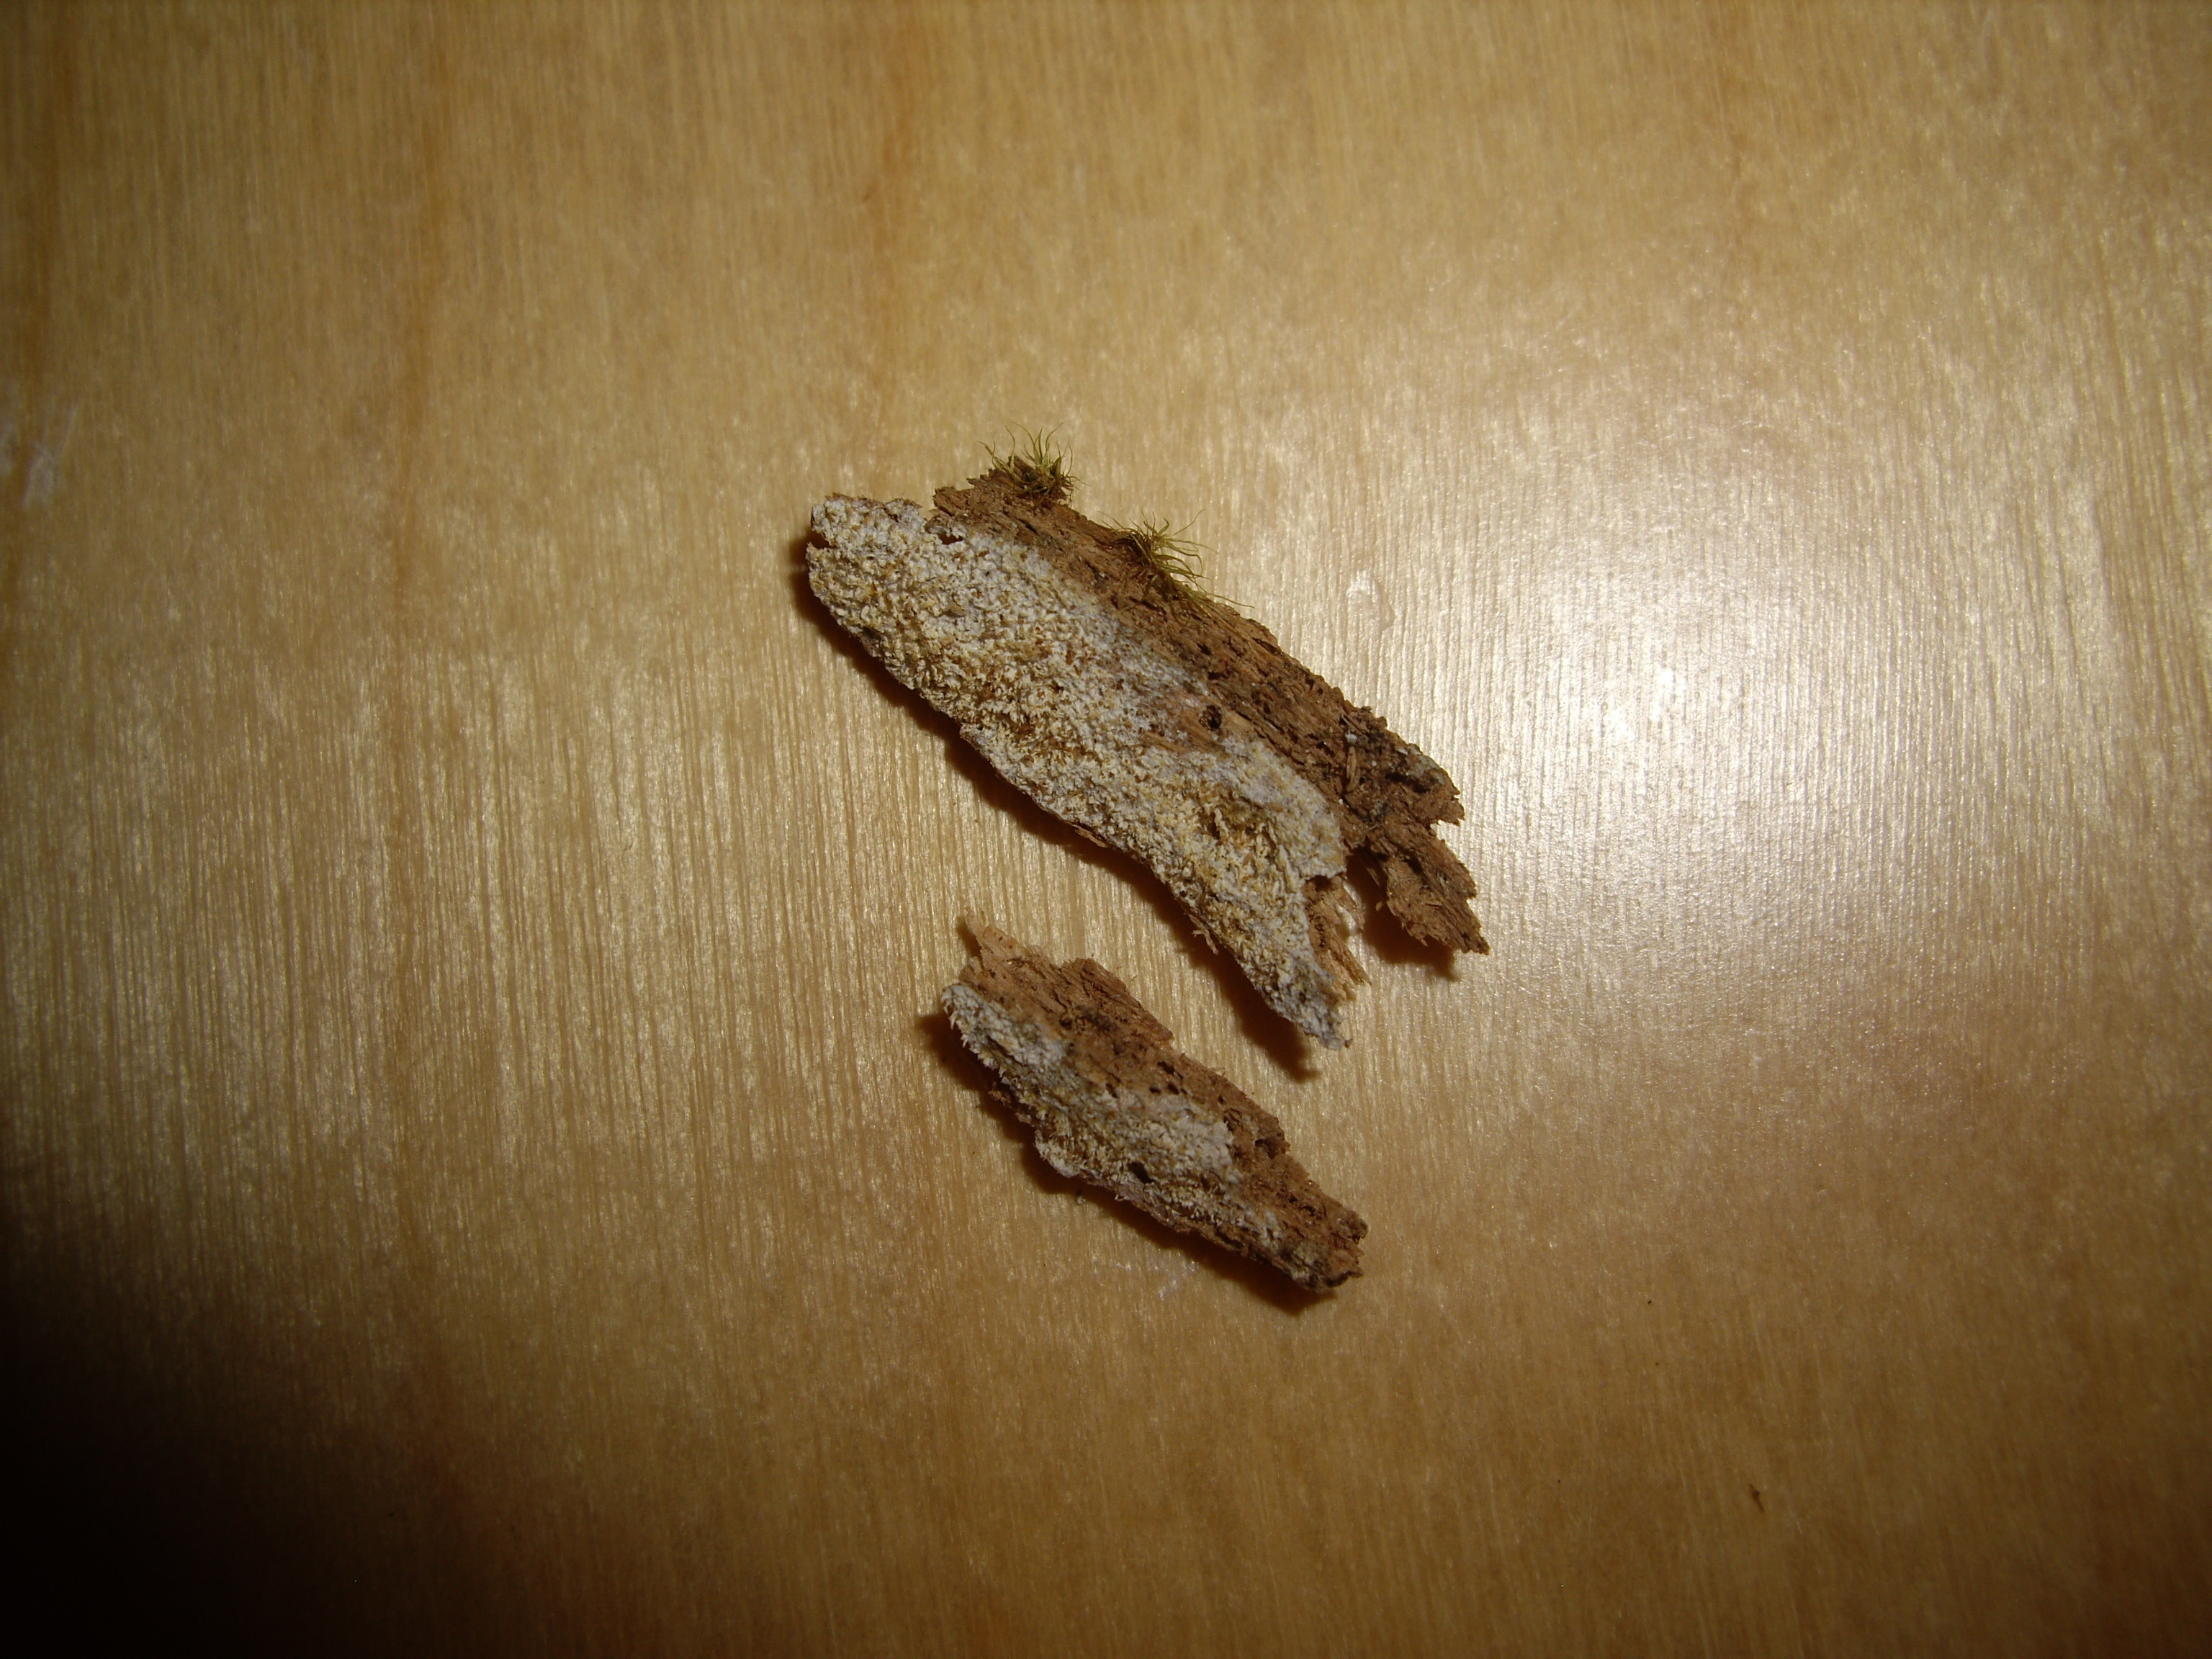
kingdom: Fungi
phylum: Basidiomycota
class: Agaricomycetes
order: Hymenochaetales
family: Rickenellaceae
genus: Sidera
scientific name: Sidera lunata
